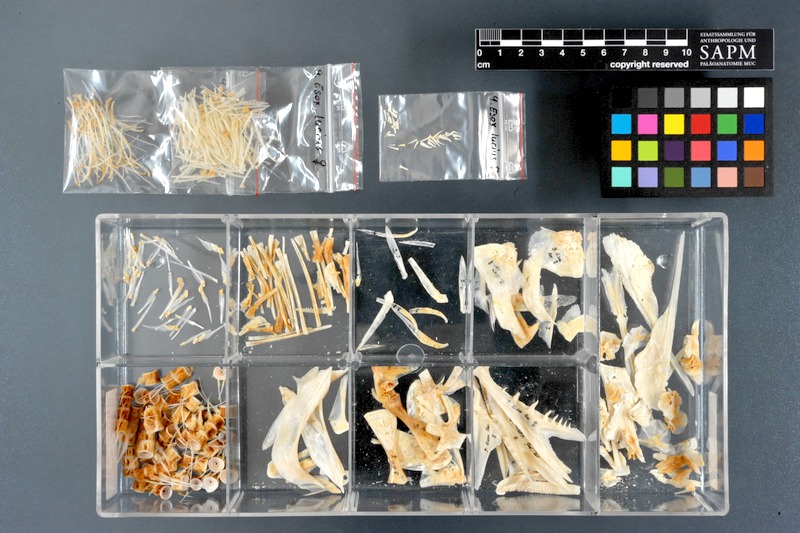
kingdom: Animalia
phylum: Chordata
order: Esociformes
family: Esocidae
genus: Esox
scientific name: Esox lucius
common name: Northern pike
